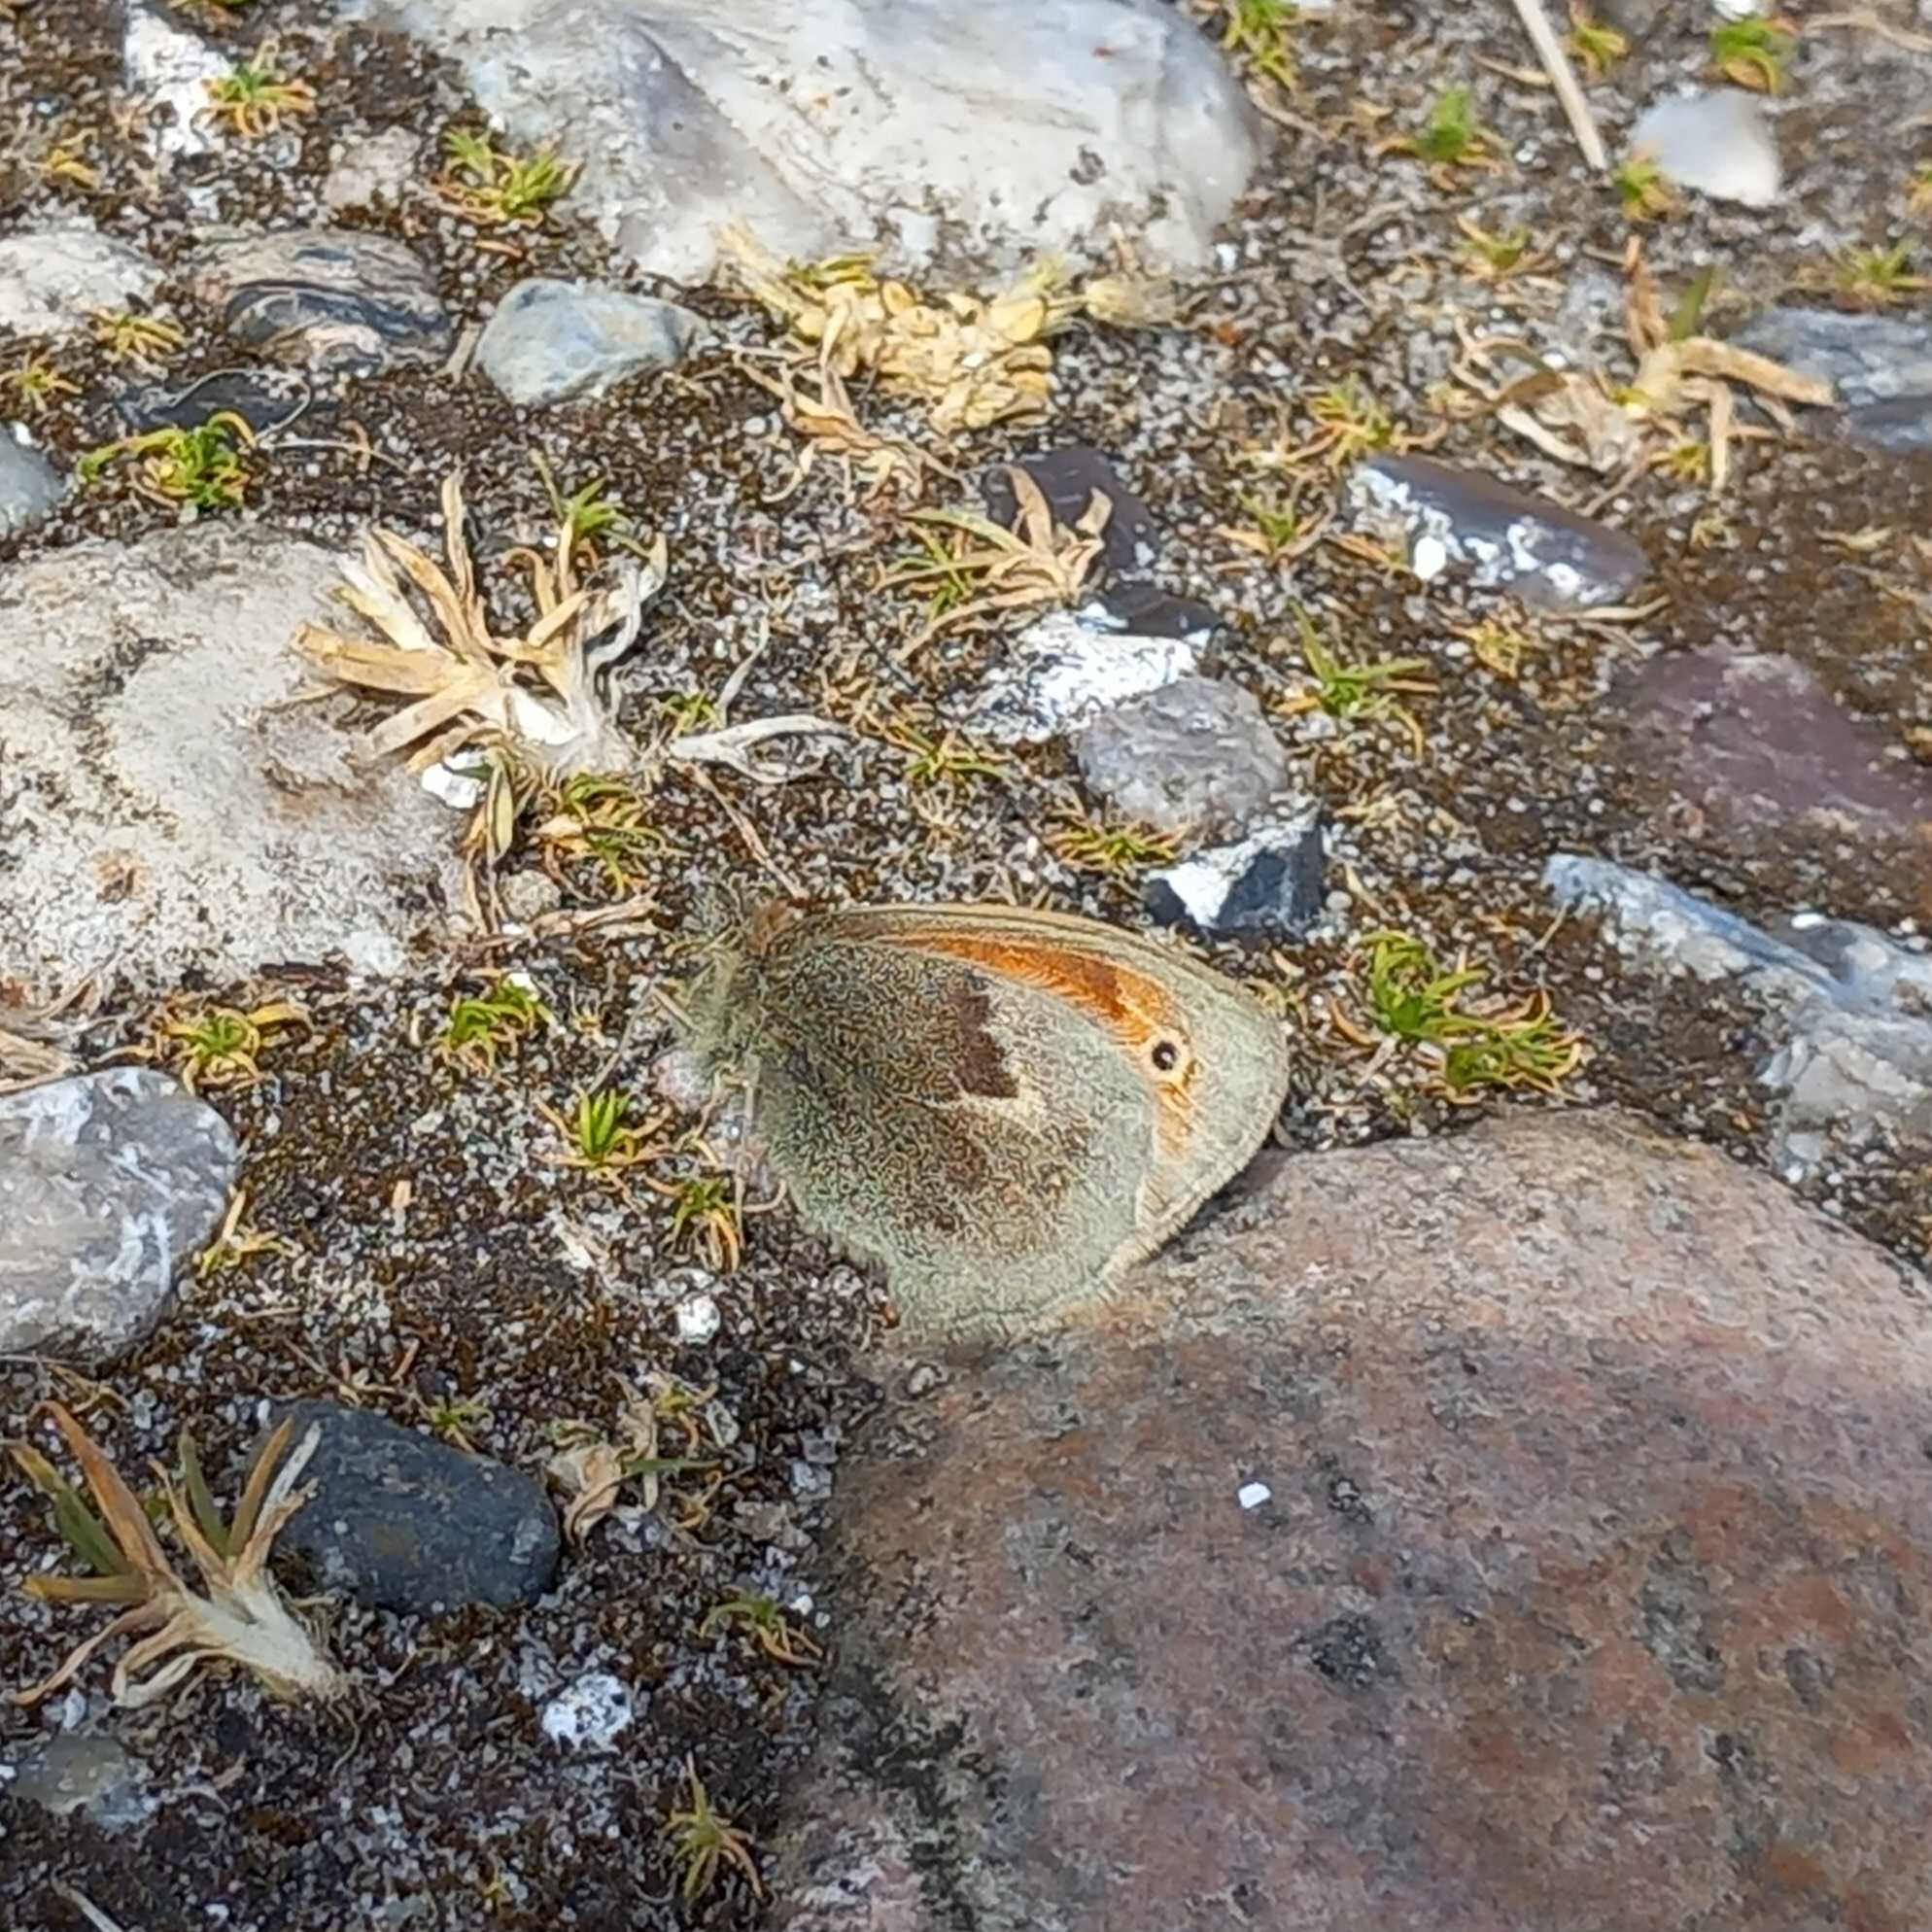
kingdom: Animalia
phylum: Arthropoda
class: Insecta
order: Lepidoptera
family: Nymphalidae
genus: Coenonympha
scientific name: Coenonympha pamphilus
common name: Okkergul randøje
